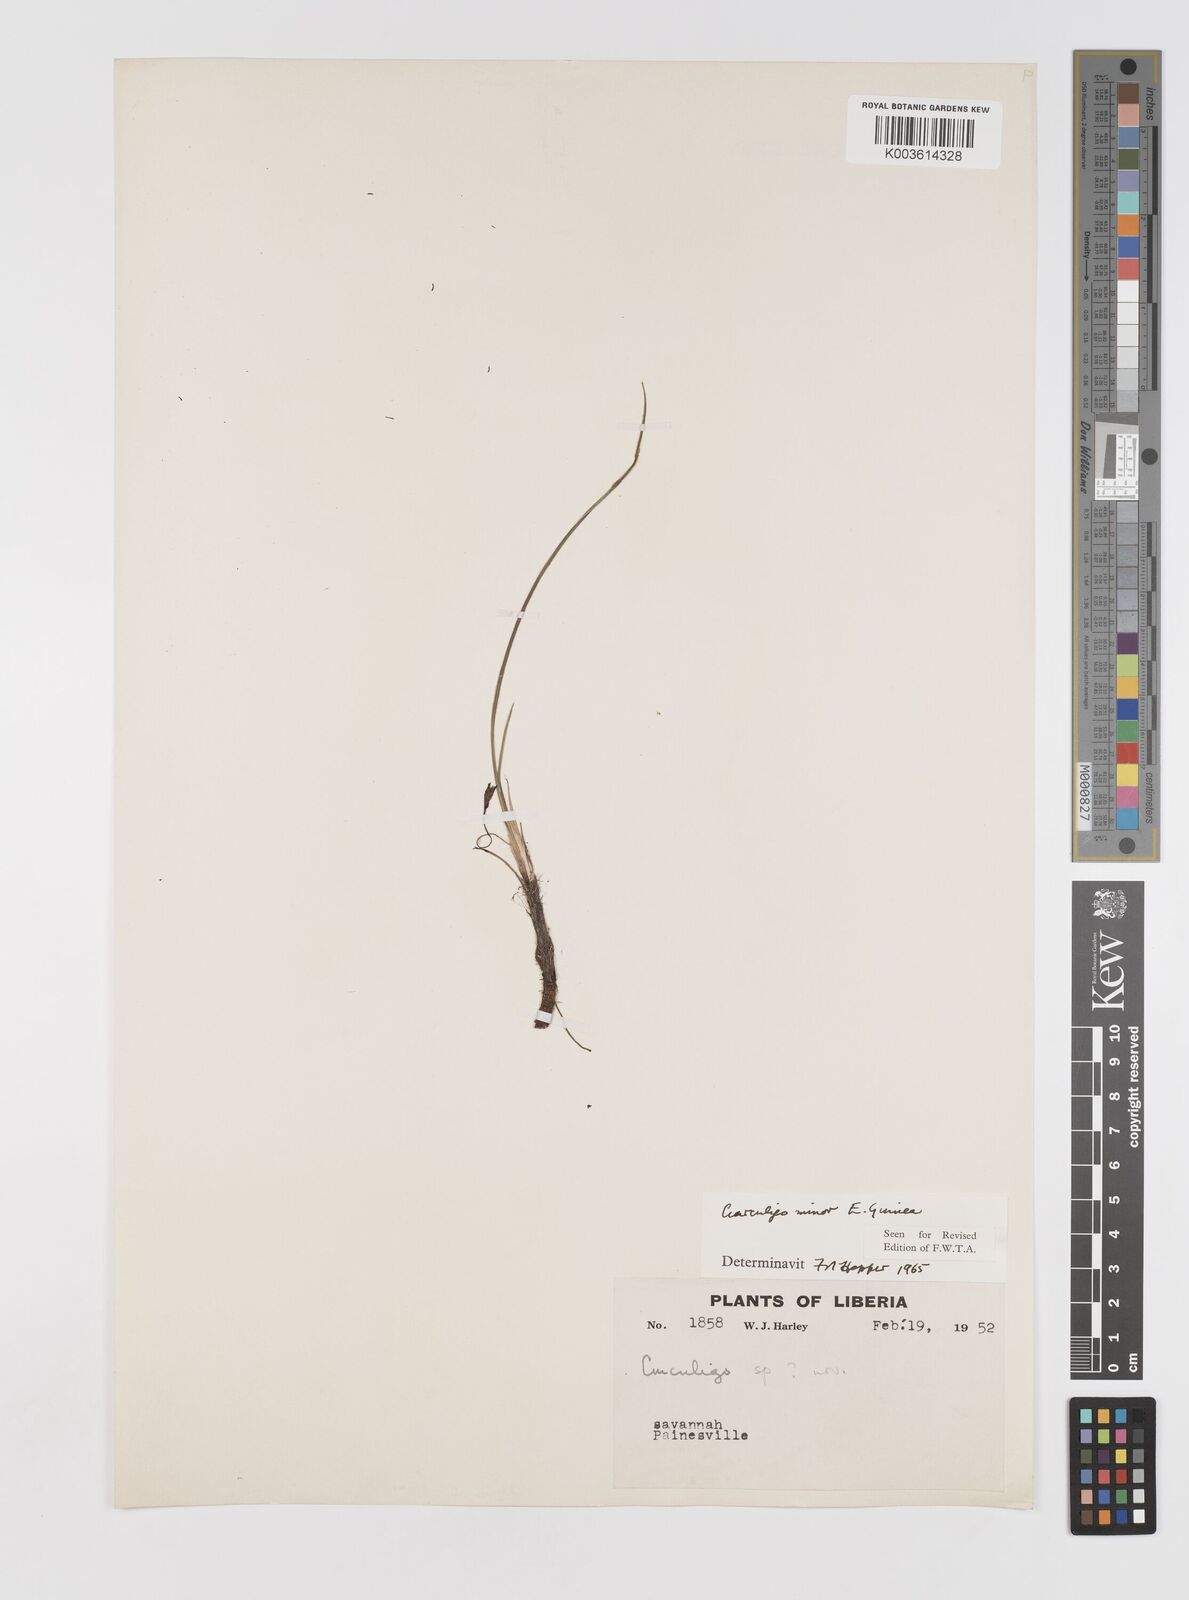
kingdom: Plantae
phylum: Tracheophyta
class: Liliopsida
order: Asparagales
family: Hypoxidaceae
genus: Curculigo
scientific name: Curculigo pilosa
